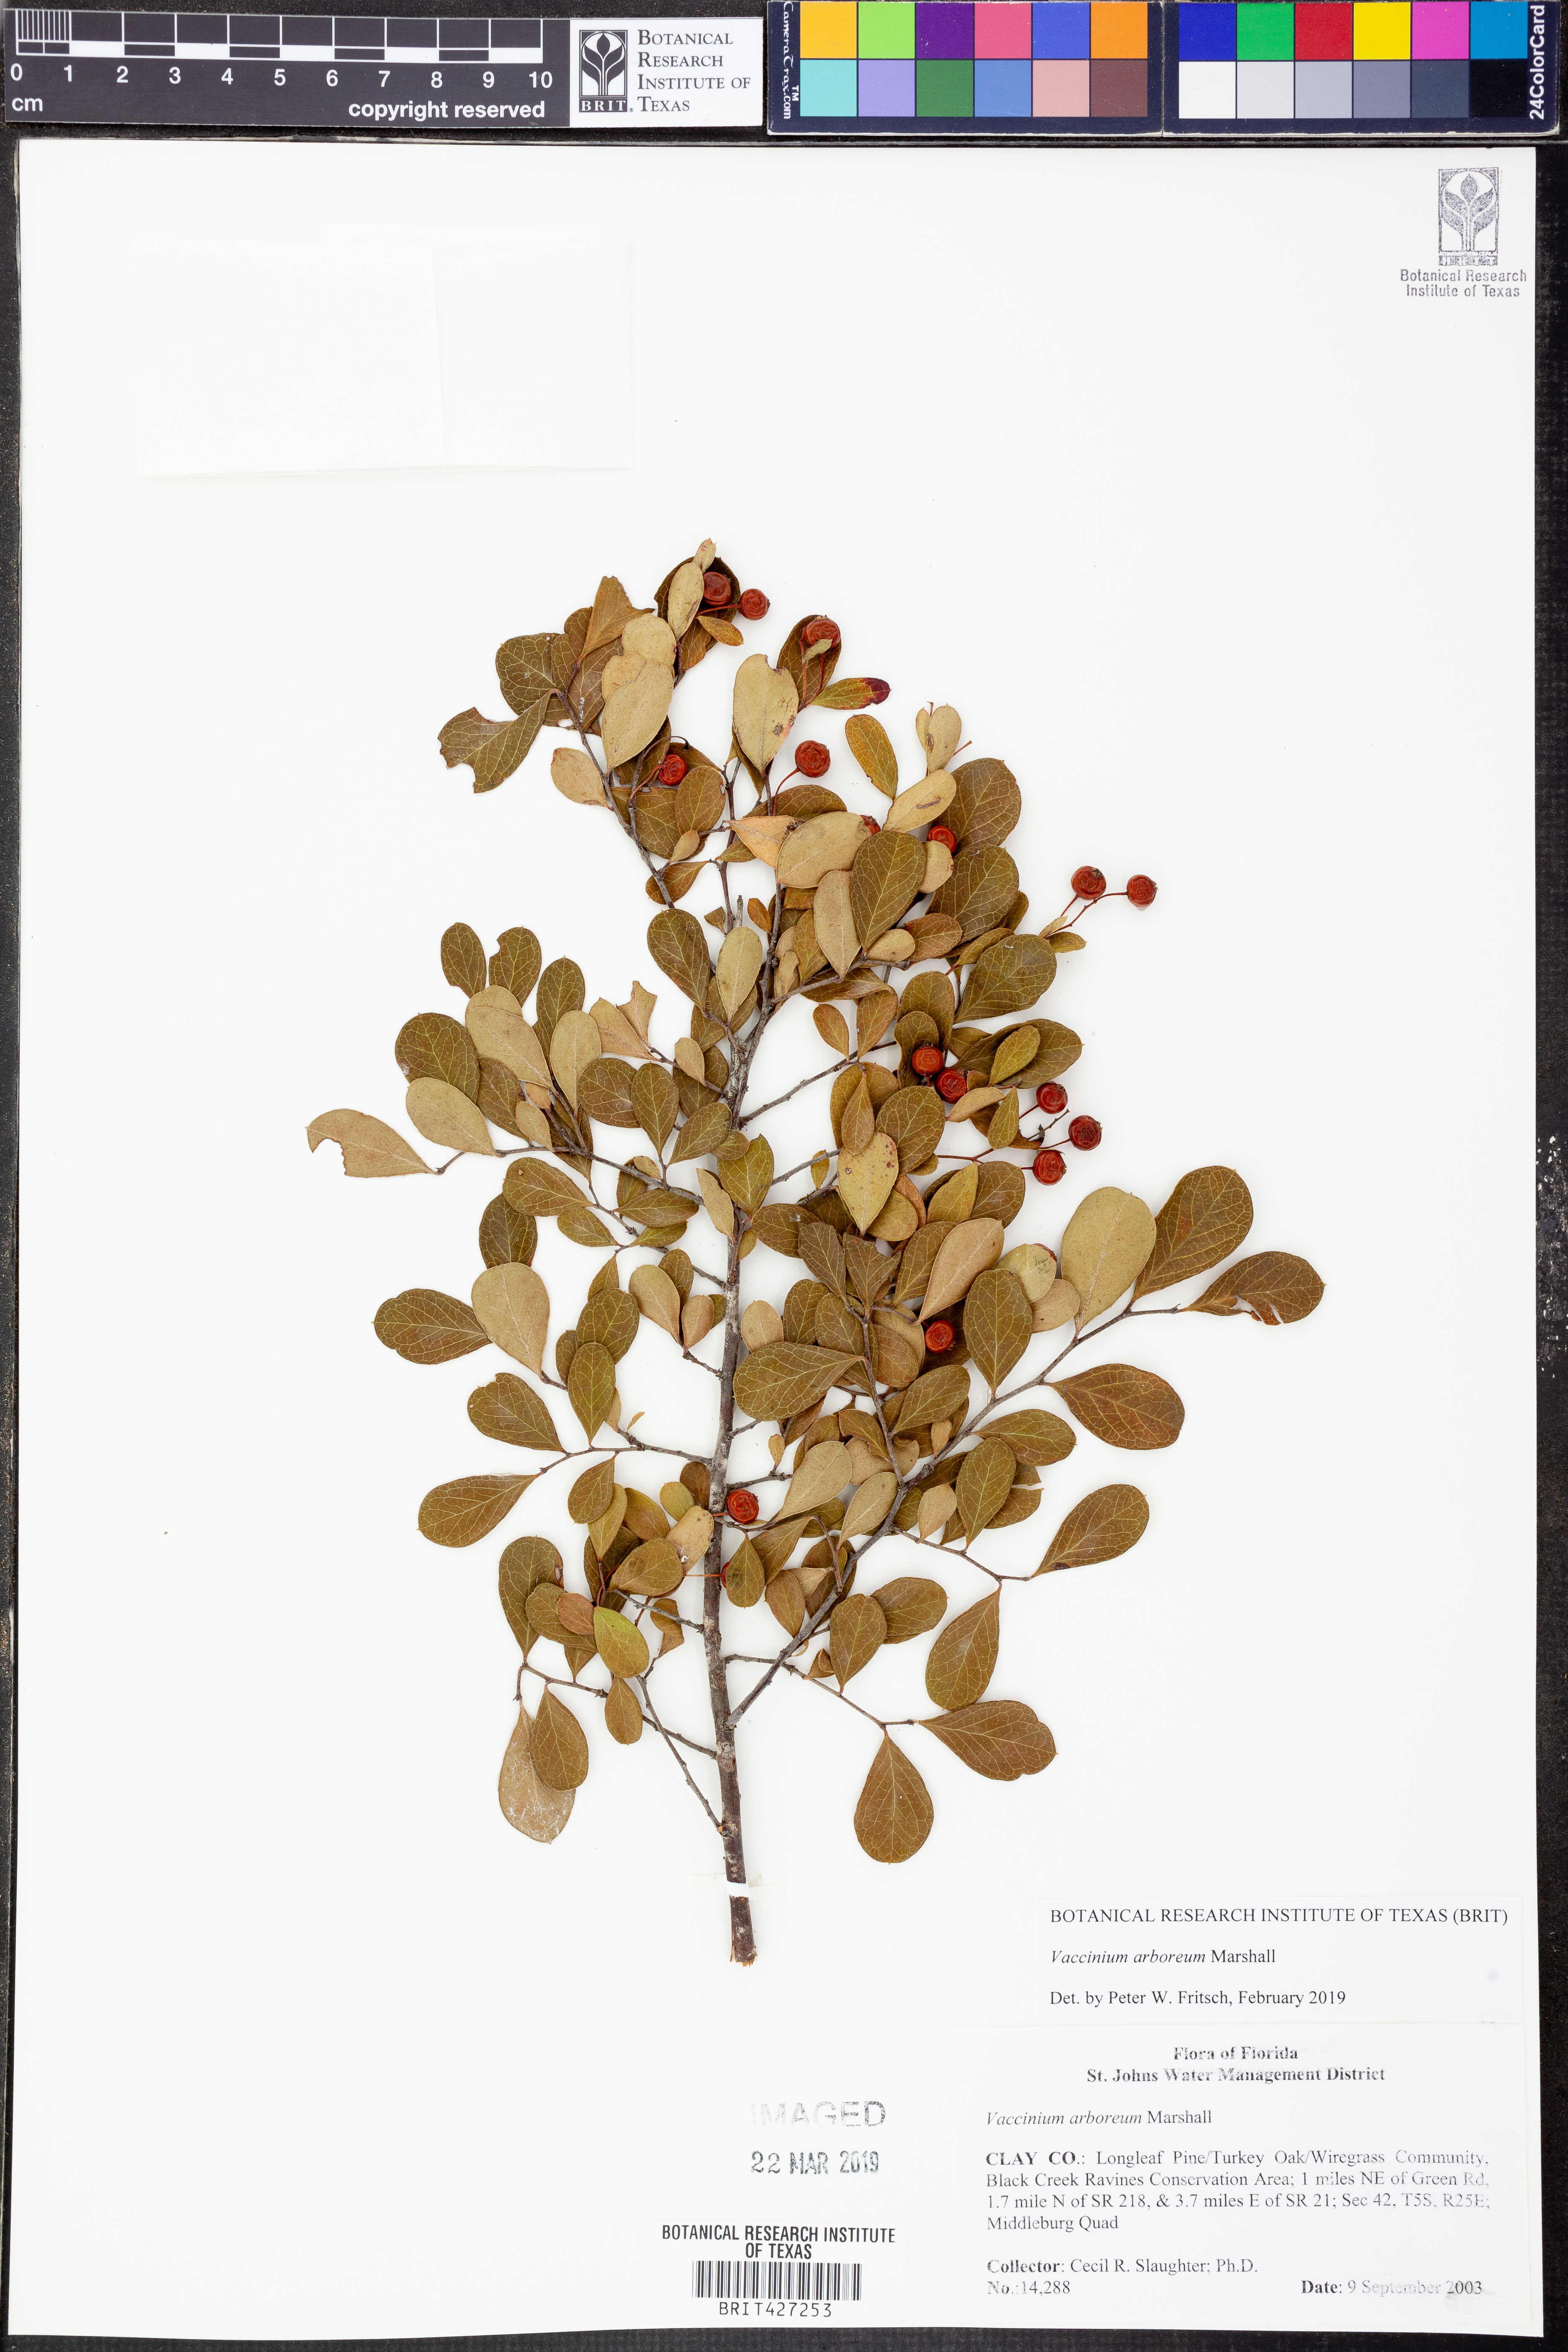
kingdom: Plantae
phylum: Tracheophyta
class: Magnoliopsida
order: Ericales
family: Ericaceae
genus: Vaccinium
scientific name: Vaccinium arboreum
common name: Farkleberry
